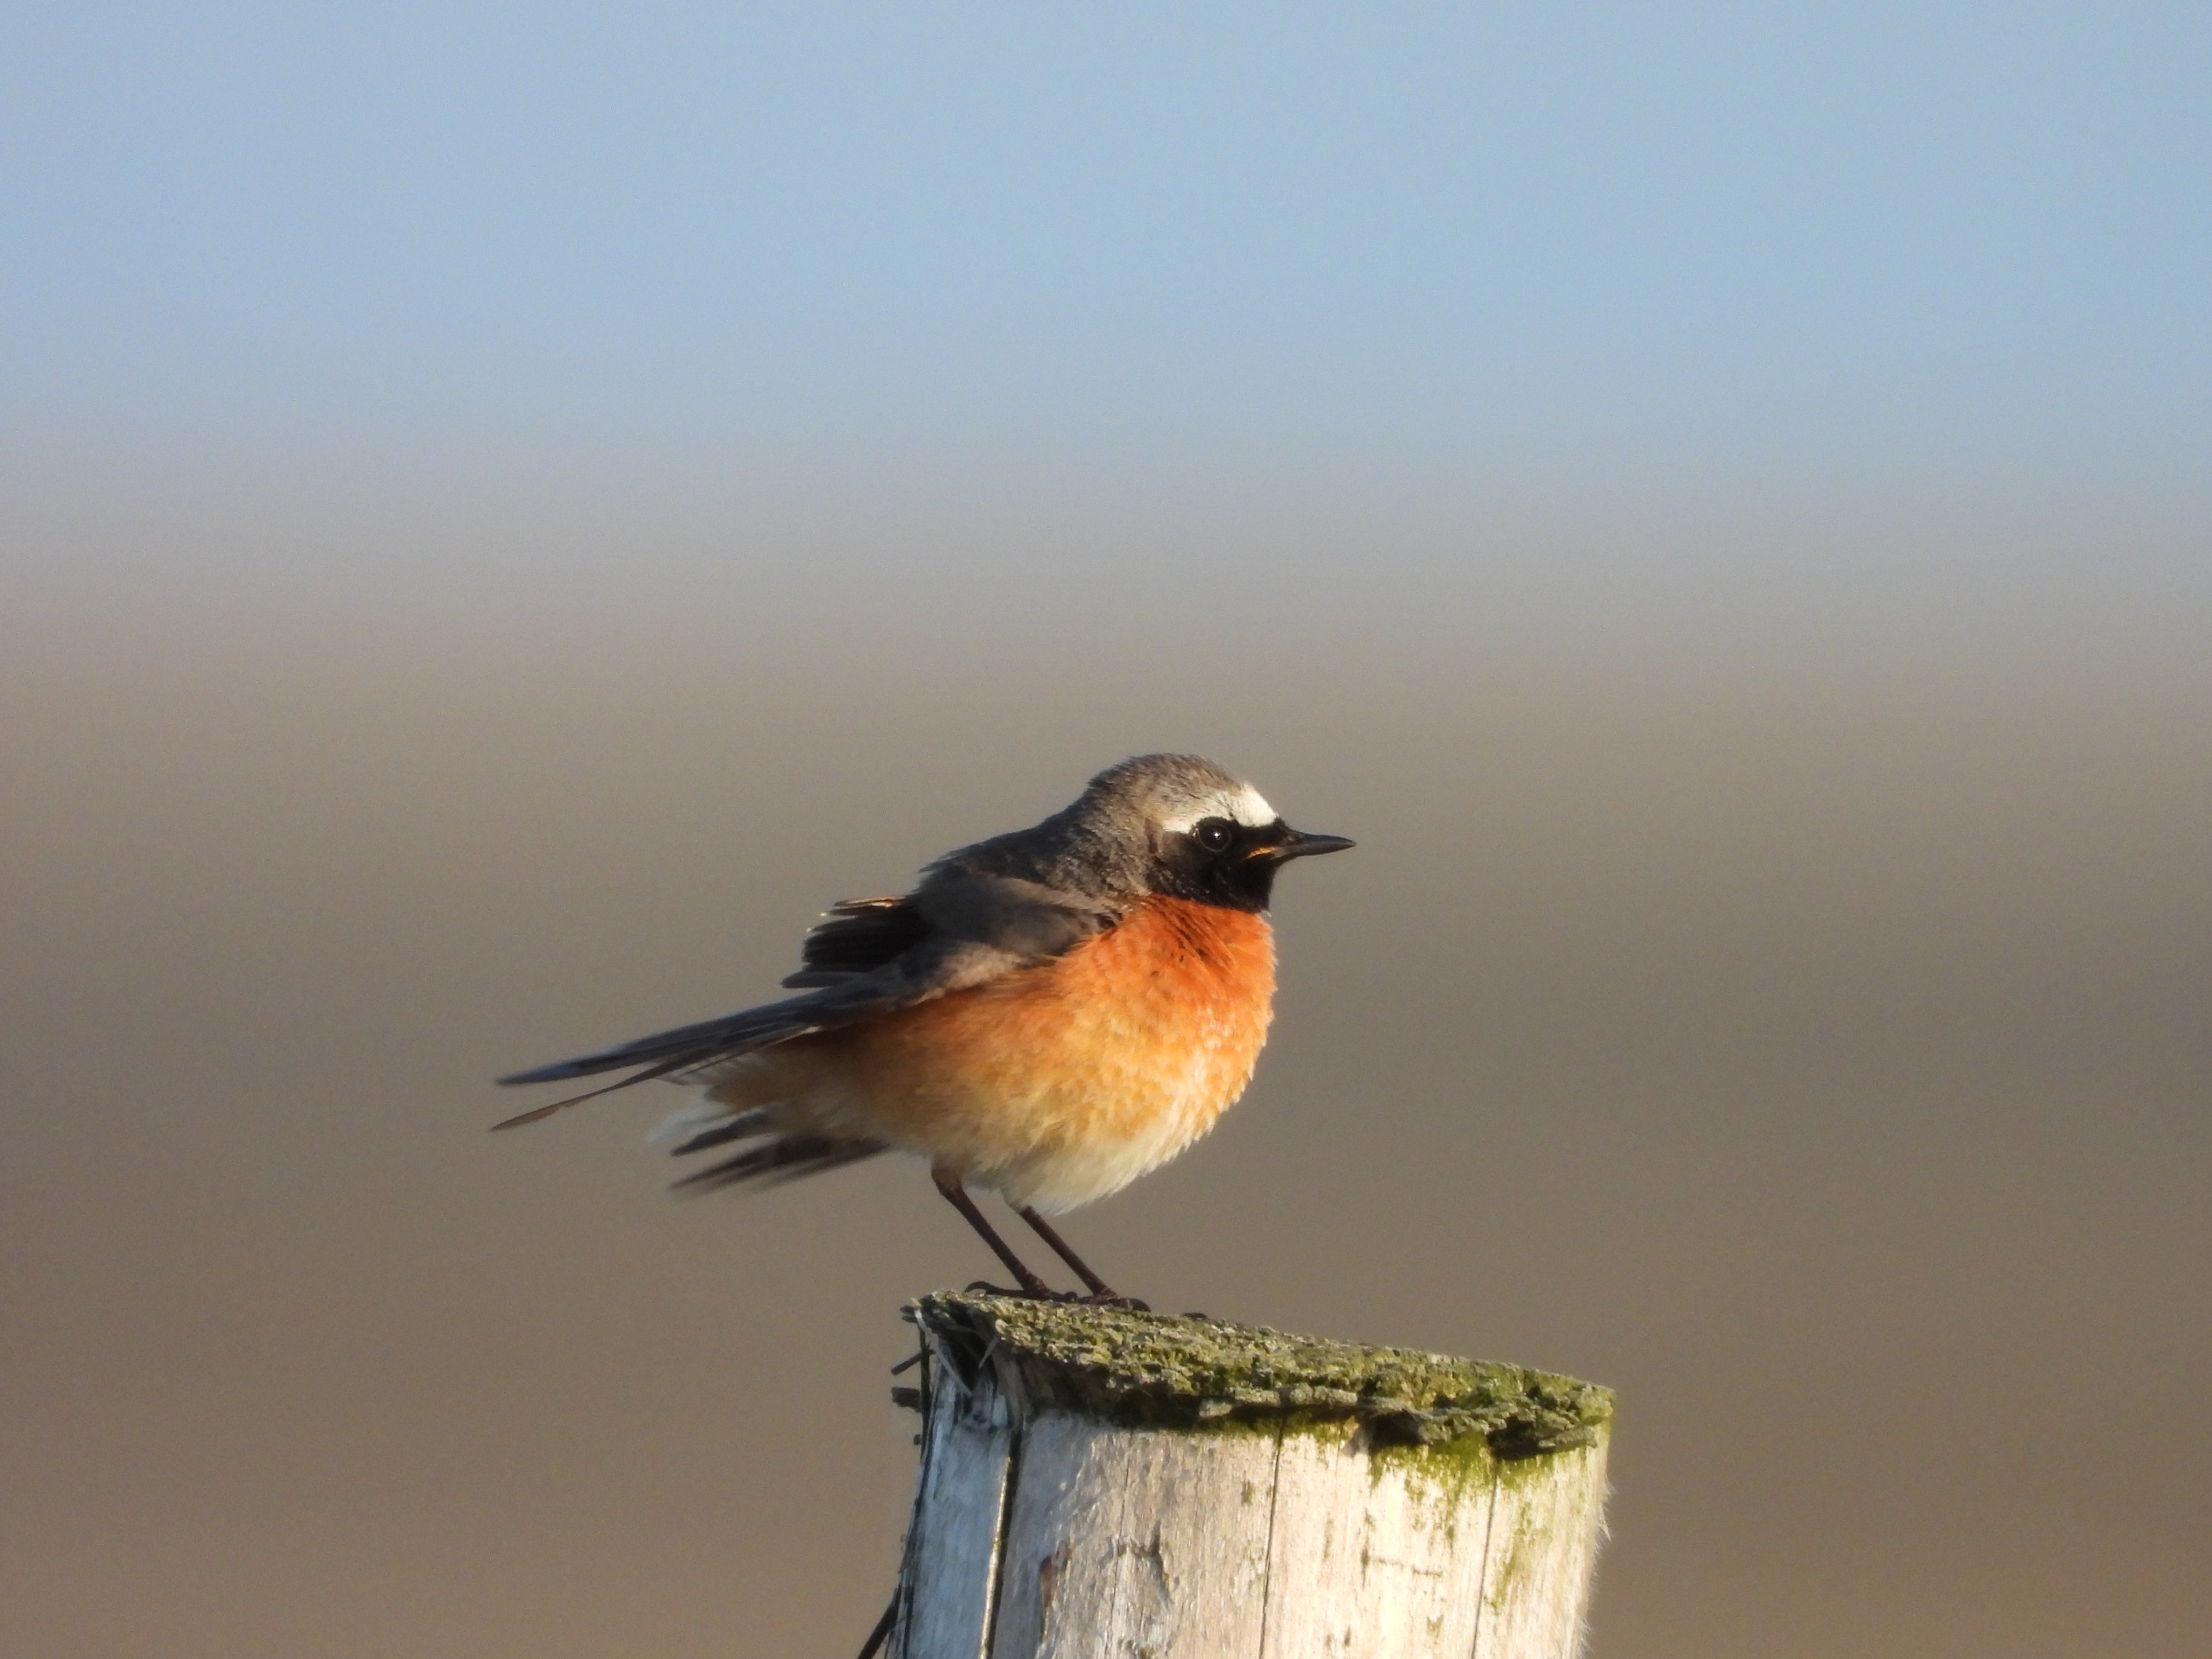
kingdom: Animalia
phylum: Chordata
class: Aves
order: Passeriformes
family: Muscicapidae
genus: Phoenicurus
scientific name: Phoenicurus phoenicurus
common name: Rødstjert
